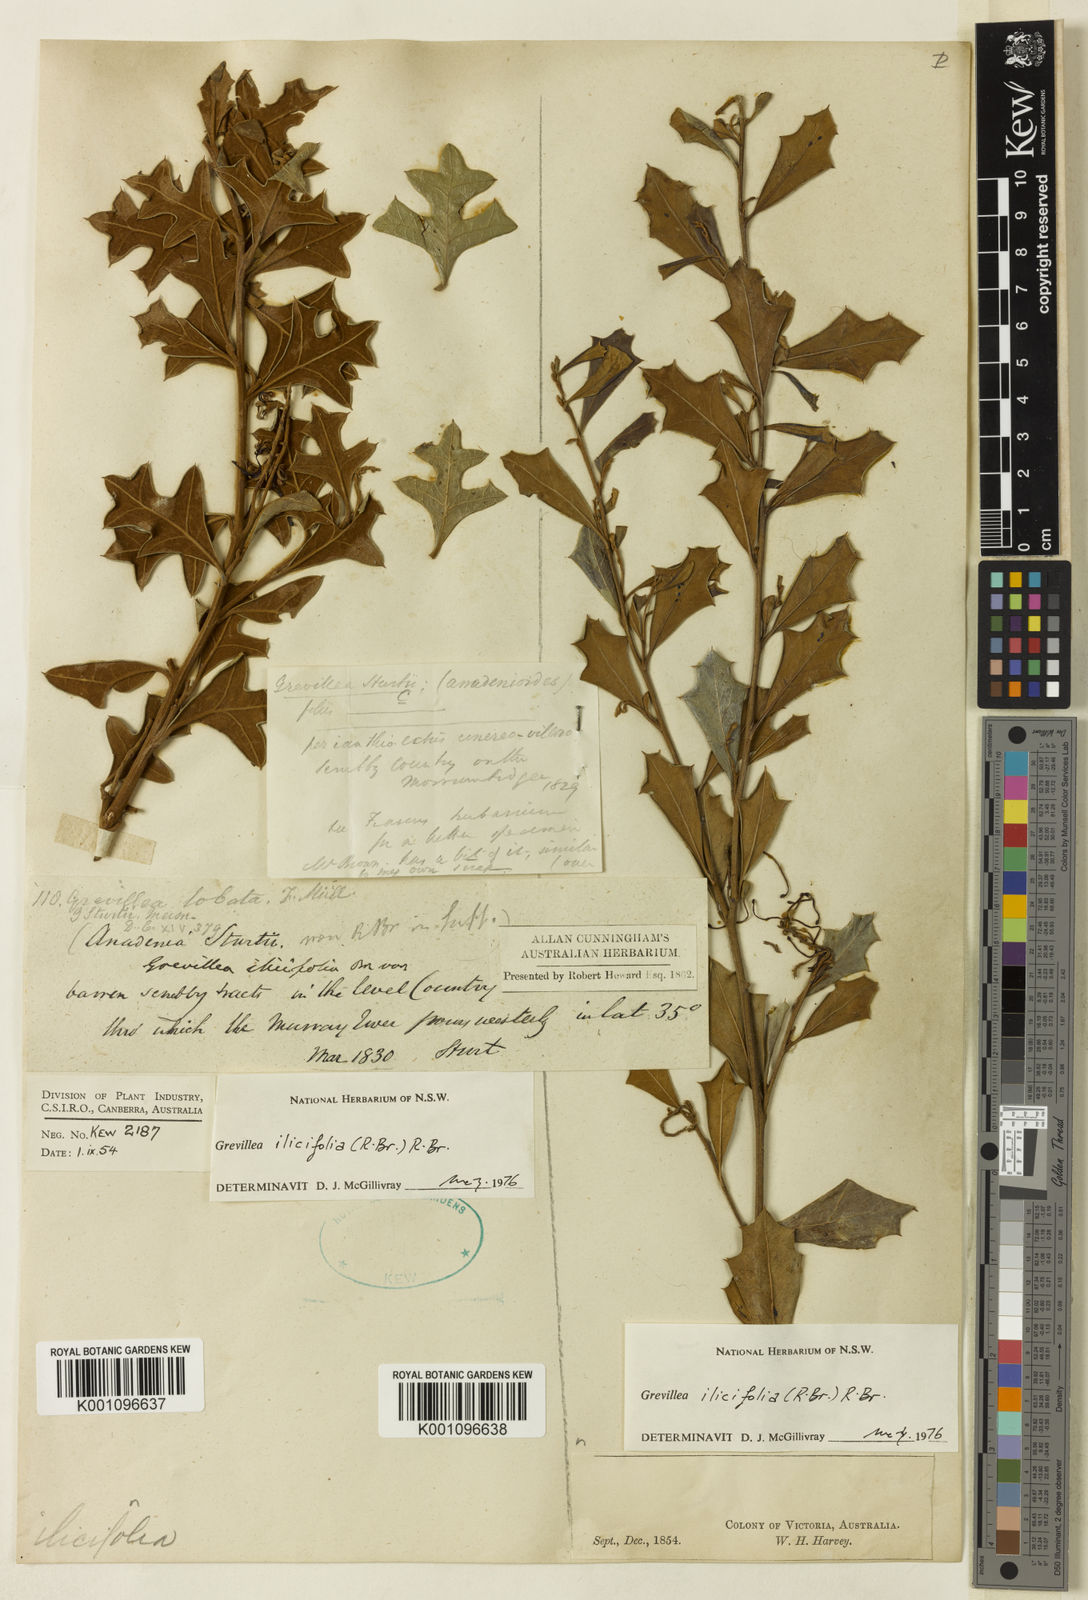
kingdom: Plantae
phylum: Tracheophyta
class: Magnoliopsida
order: Proteales
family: Proteaceae
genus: Grevillea
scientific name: Grevillea ilicifolia
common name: Holly grevillea
